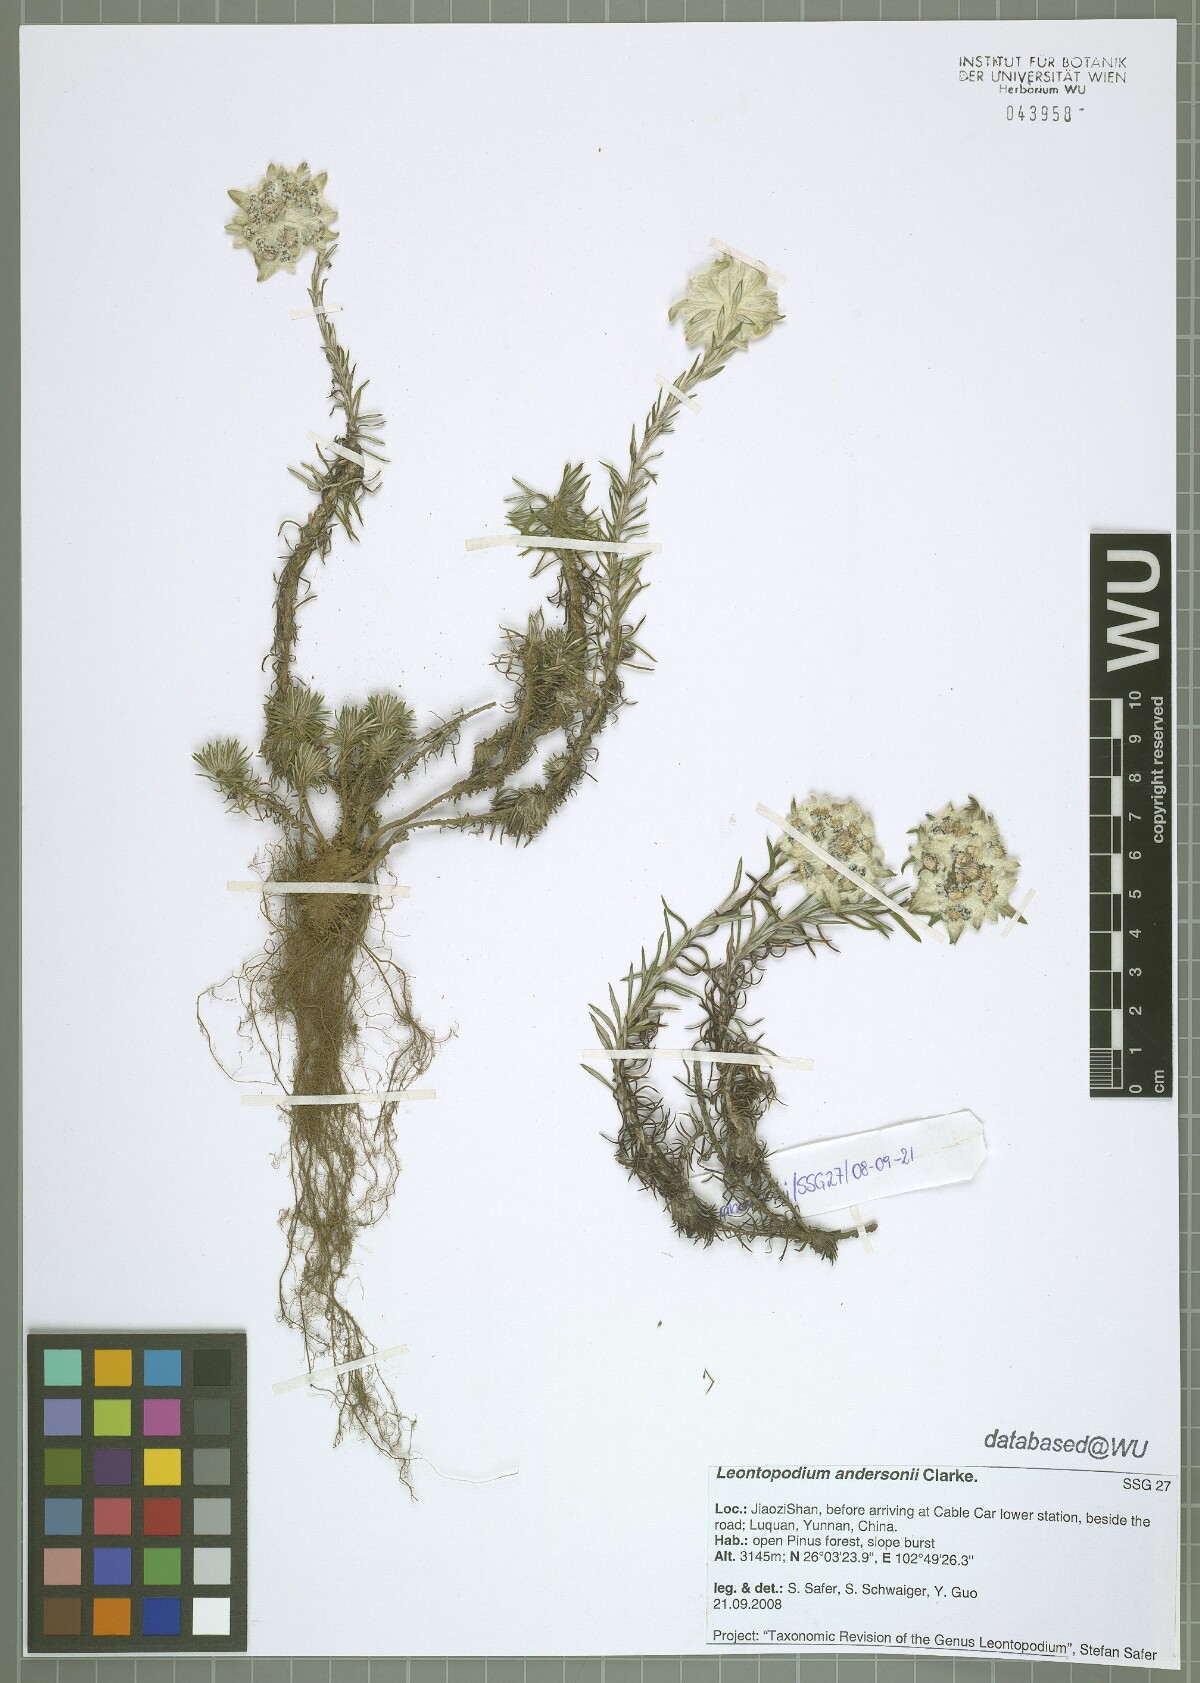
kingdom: Plantae
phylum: Tracheophyta
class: Magnoliopsida
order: Asterales
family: Asteraceae
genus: Leontopodium
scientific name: Leontopodium andersonii
